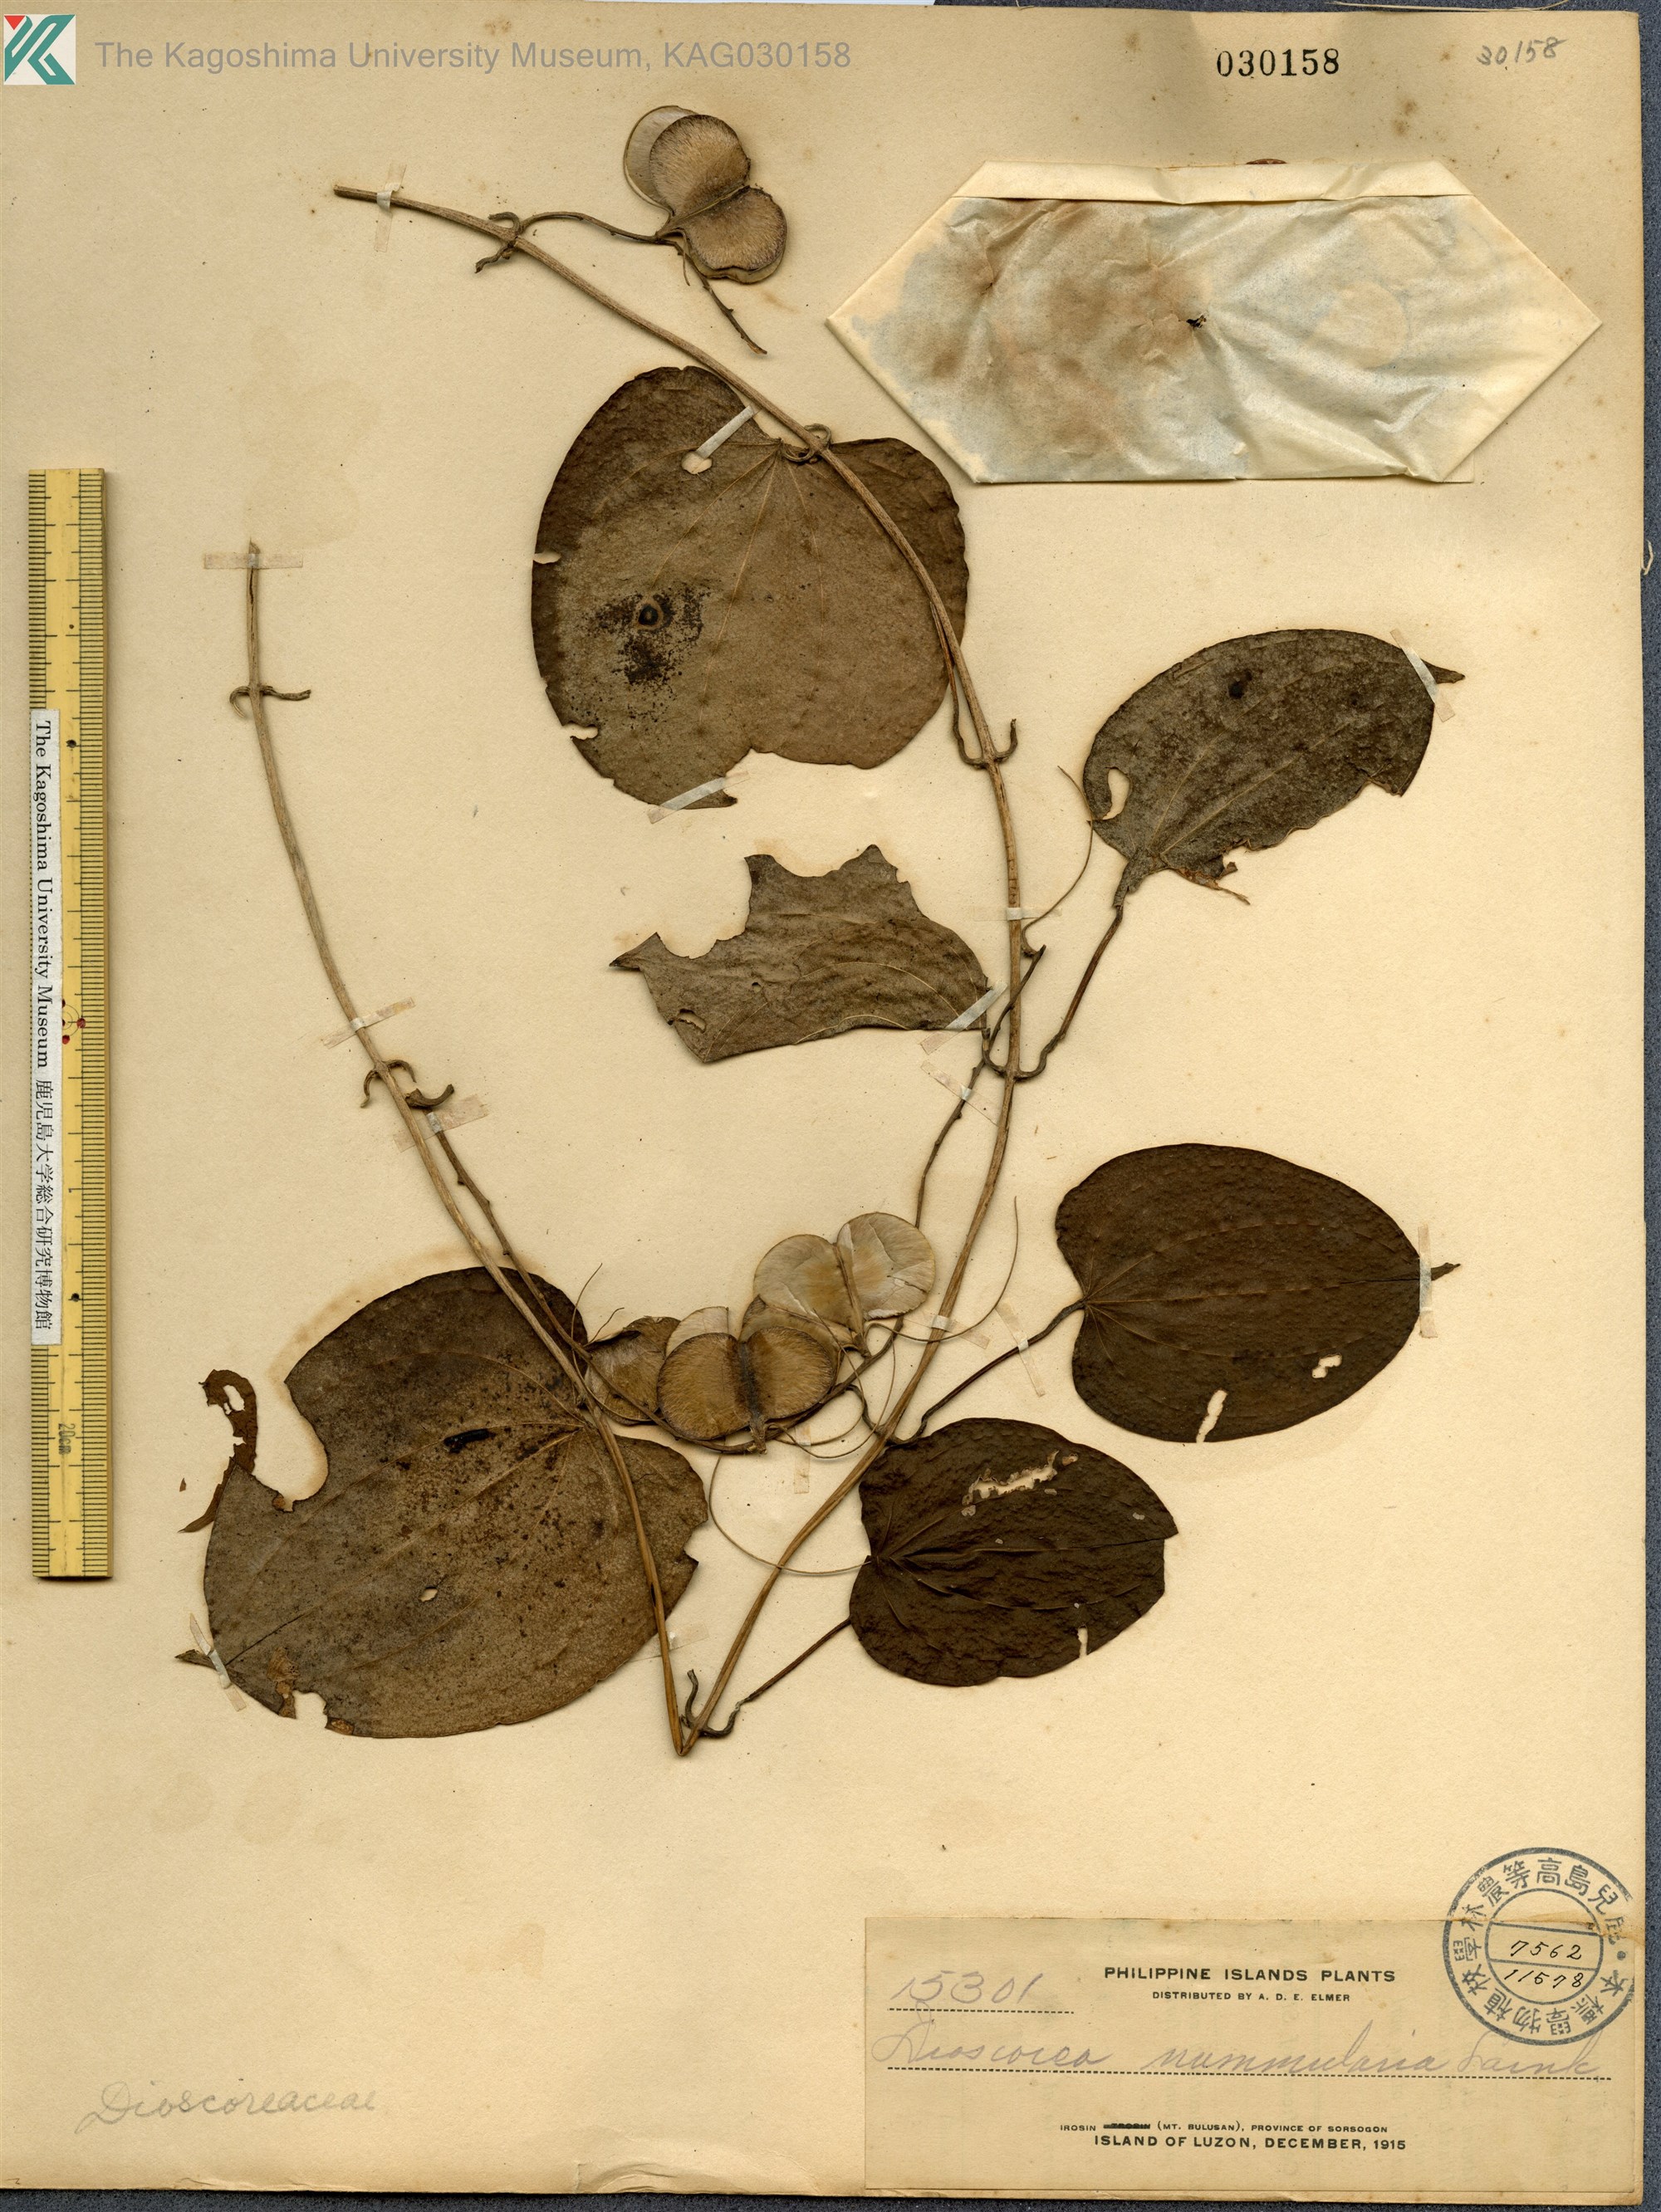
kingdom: Plantae
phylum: Tracheophyta
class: Liliopsida
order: Dioscoreales
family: Dioscoreaceae
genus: Dioscorea
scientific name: Dioscorea nummularia
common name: Pacific yam
